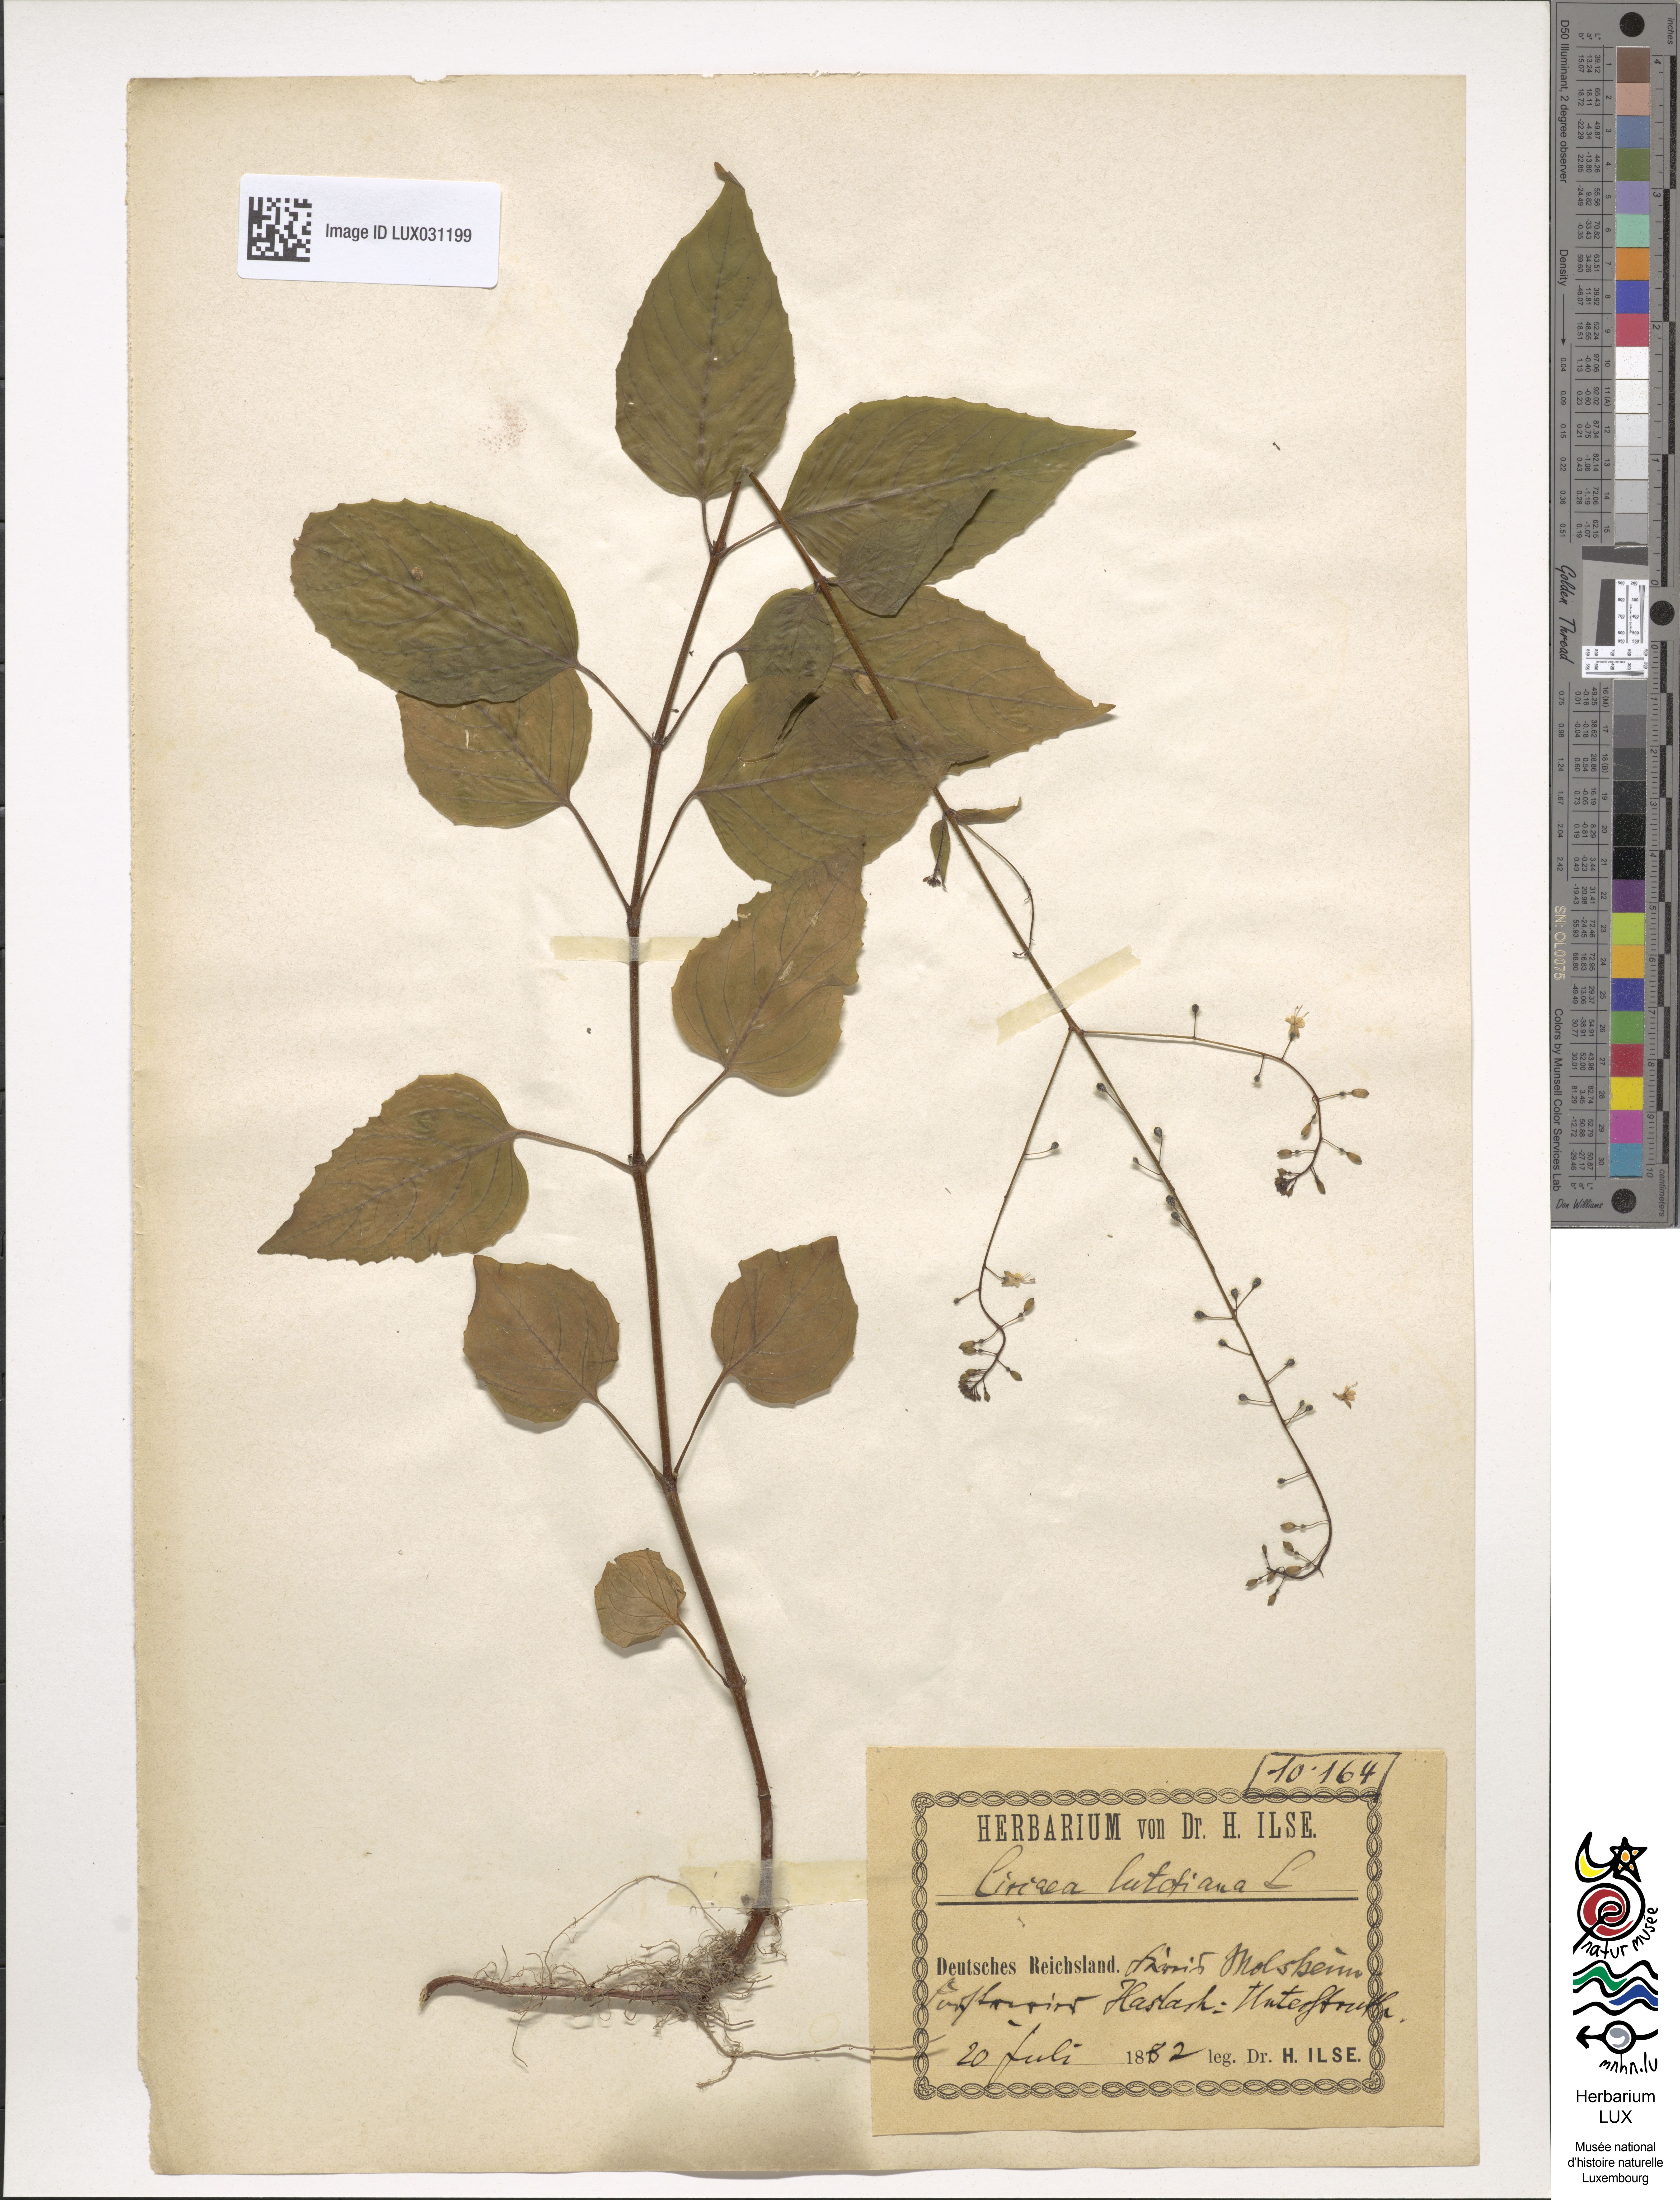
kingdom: Plantae
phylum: Tracheophyta
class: Magnoliopsida
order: Myrtales
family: Onagraceae
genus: Circaea
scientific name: Circaea lutetiana
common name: Enchanter's-nightshade
